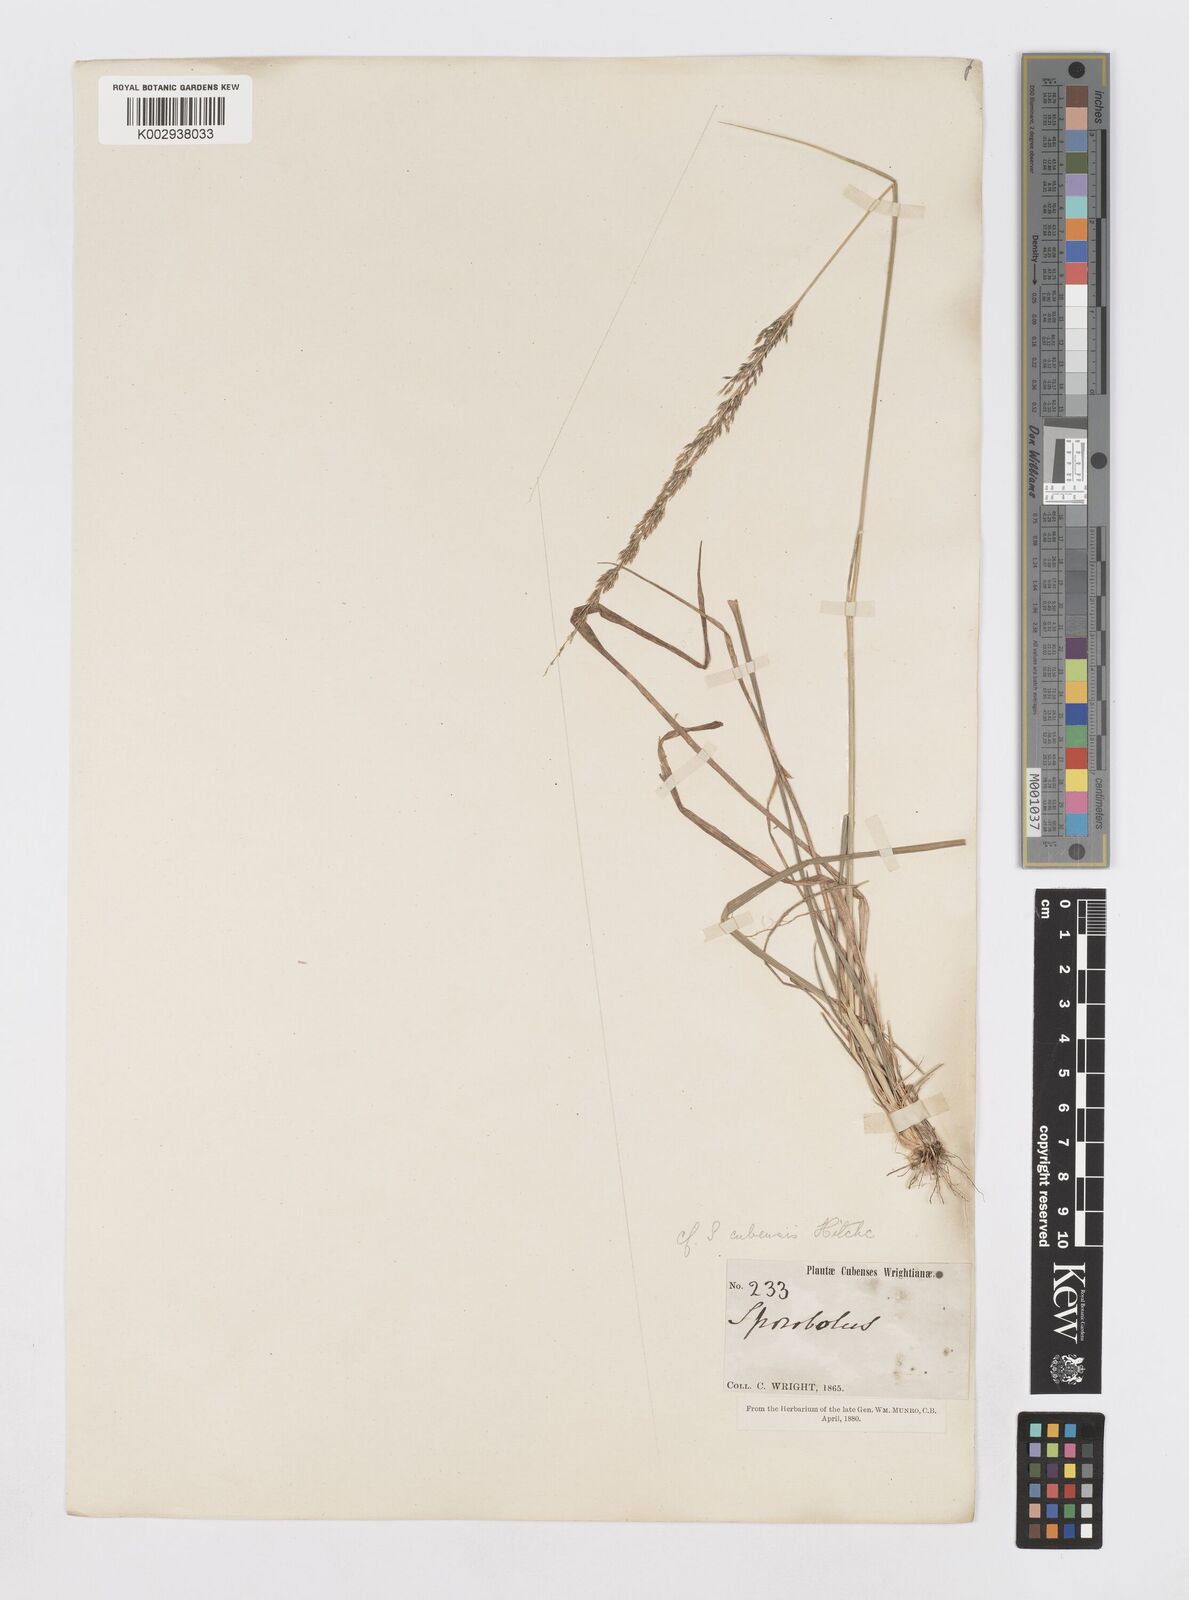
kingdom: Plantae
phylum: Tracheophyta
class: Liliopsida
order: Poales
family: Poaceae
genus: Sporobolus
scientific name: Sporobolus purpurascens
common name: Purple dropseed
